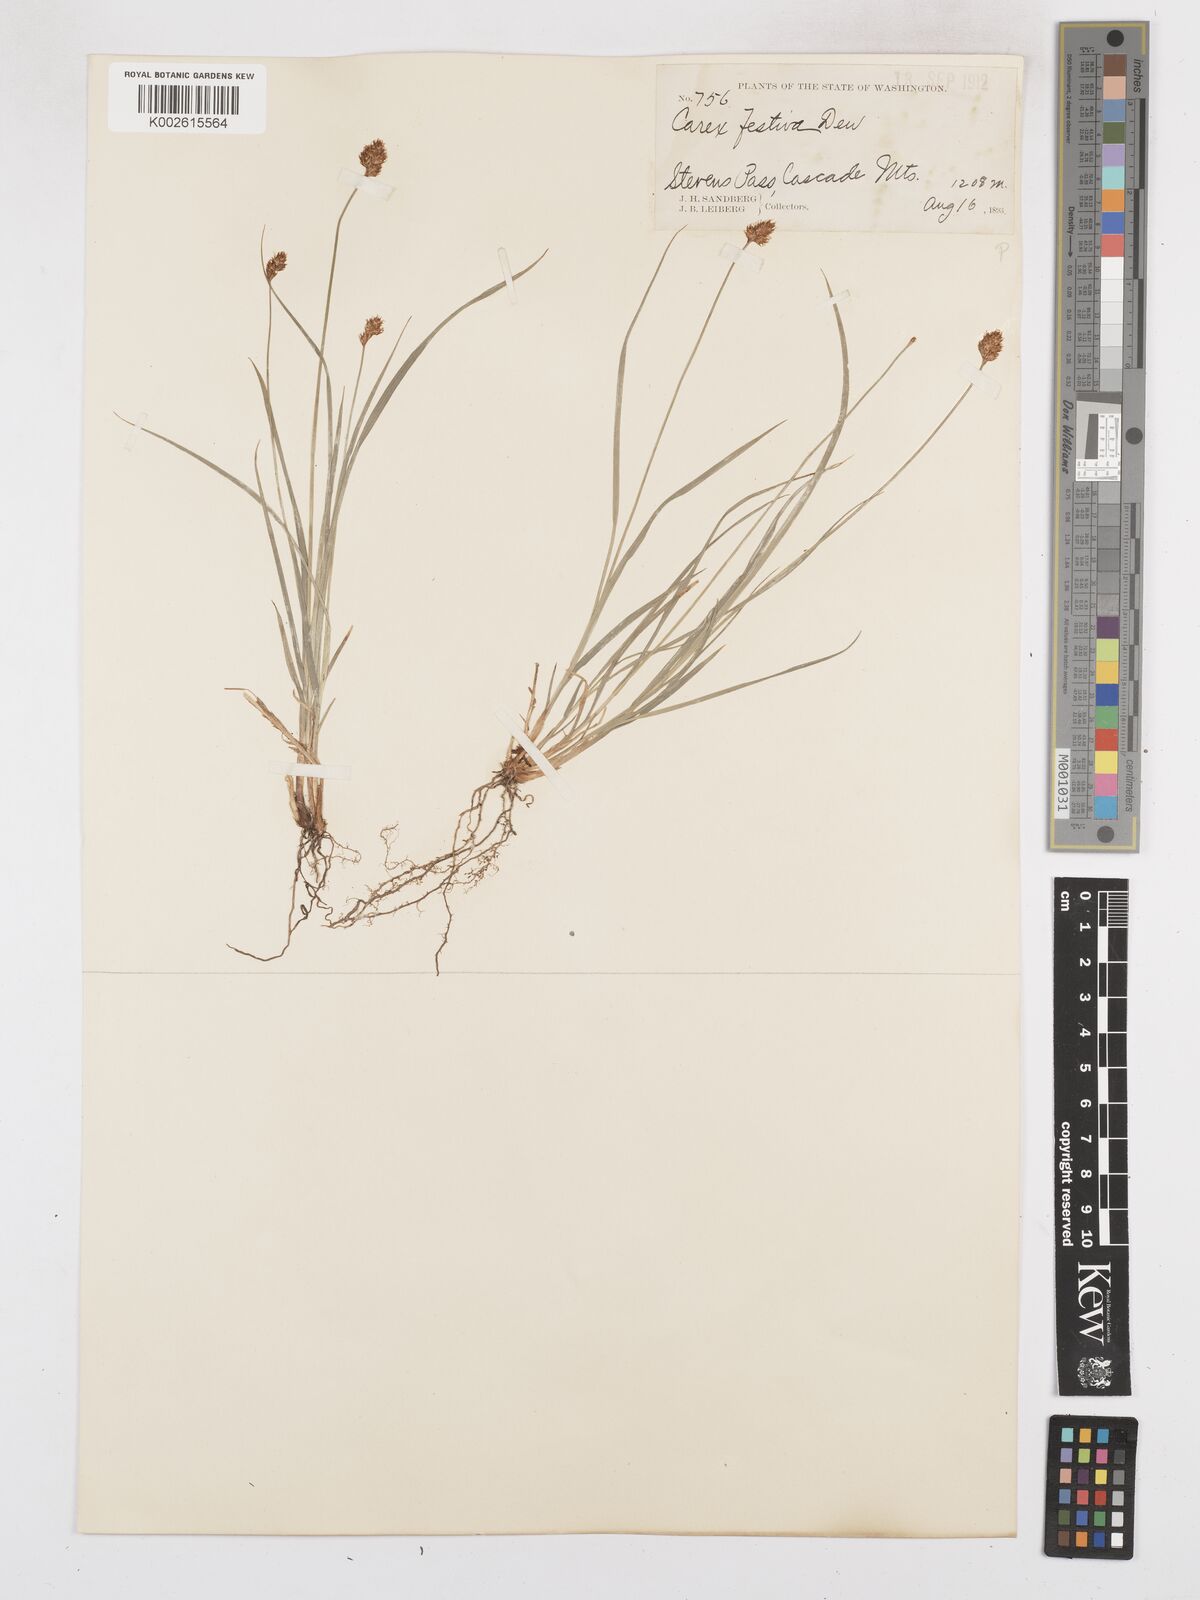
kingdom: Plantae
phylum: Tracheophyta
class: Liliopsida
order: Poales
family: Cyperaceae
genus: Carex
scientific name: Carex macloviana
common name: Falkland island sedge
